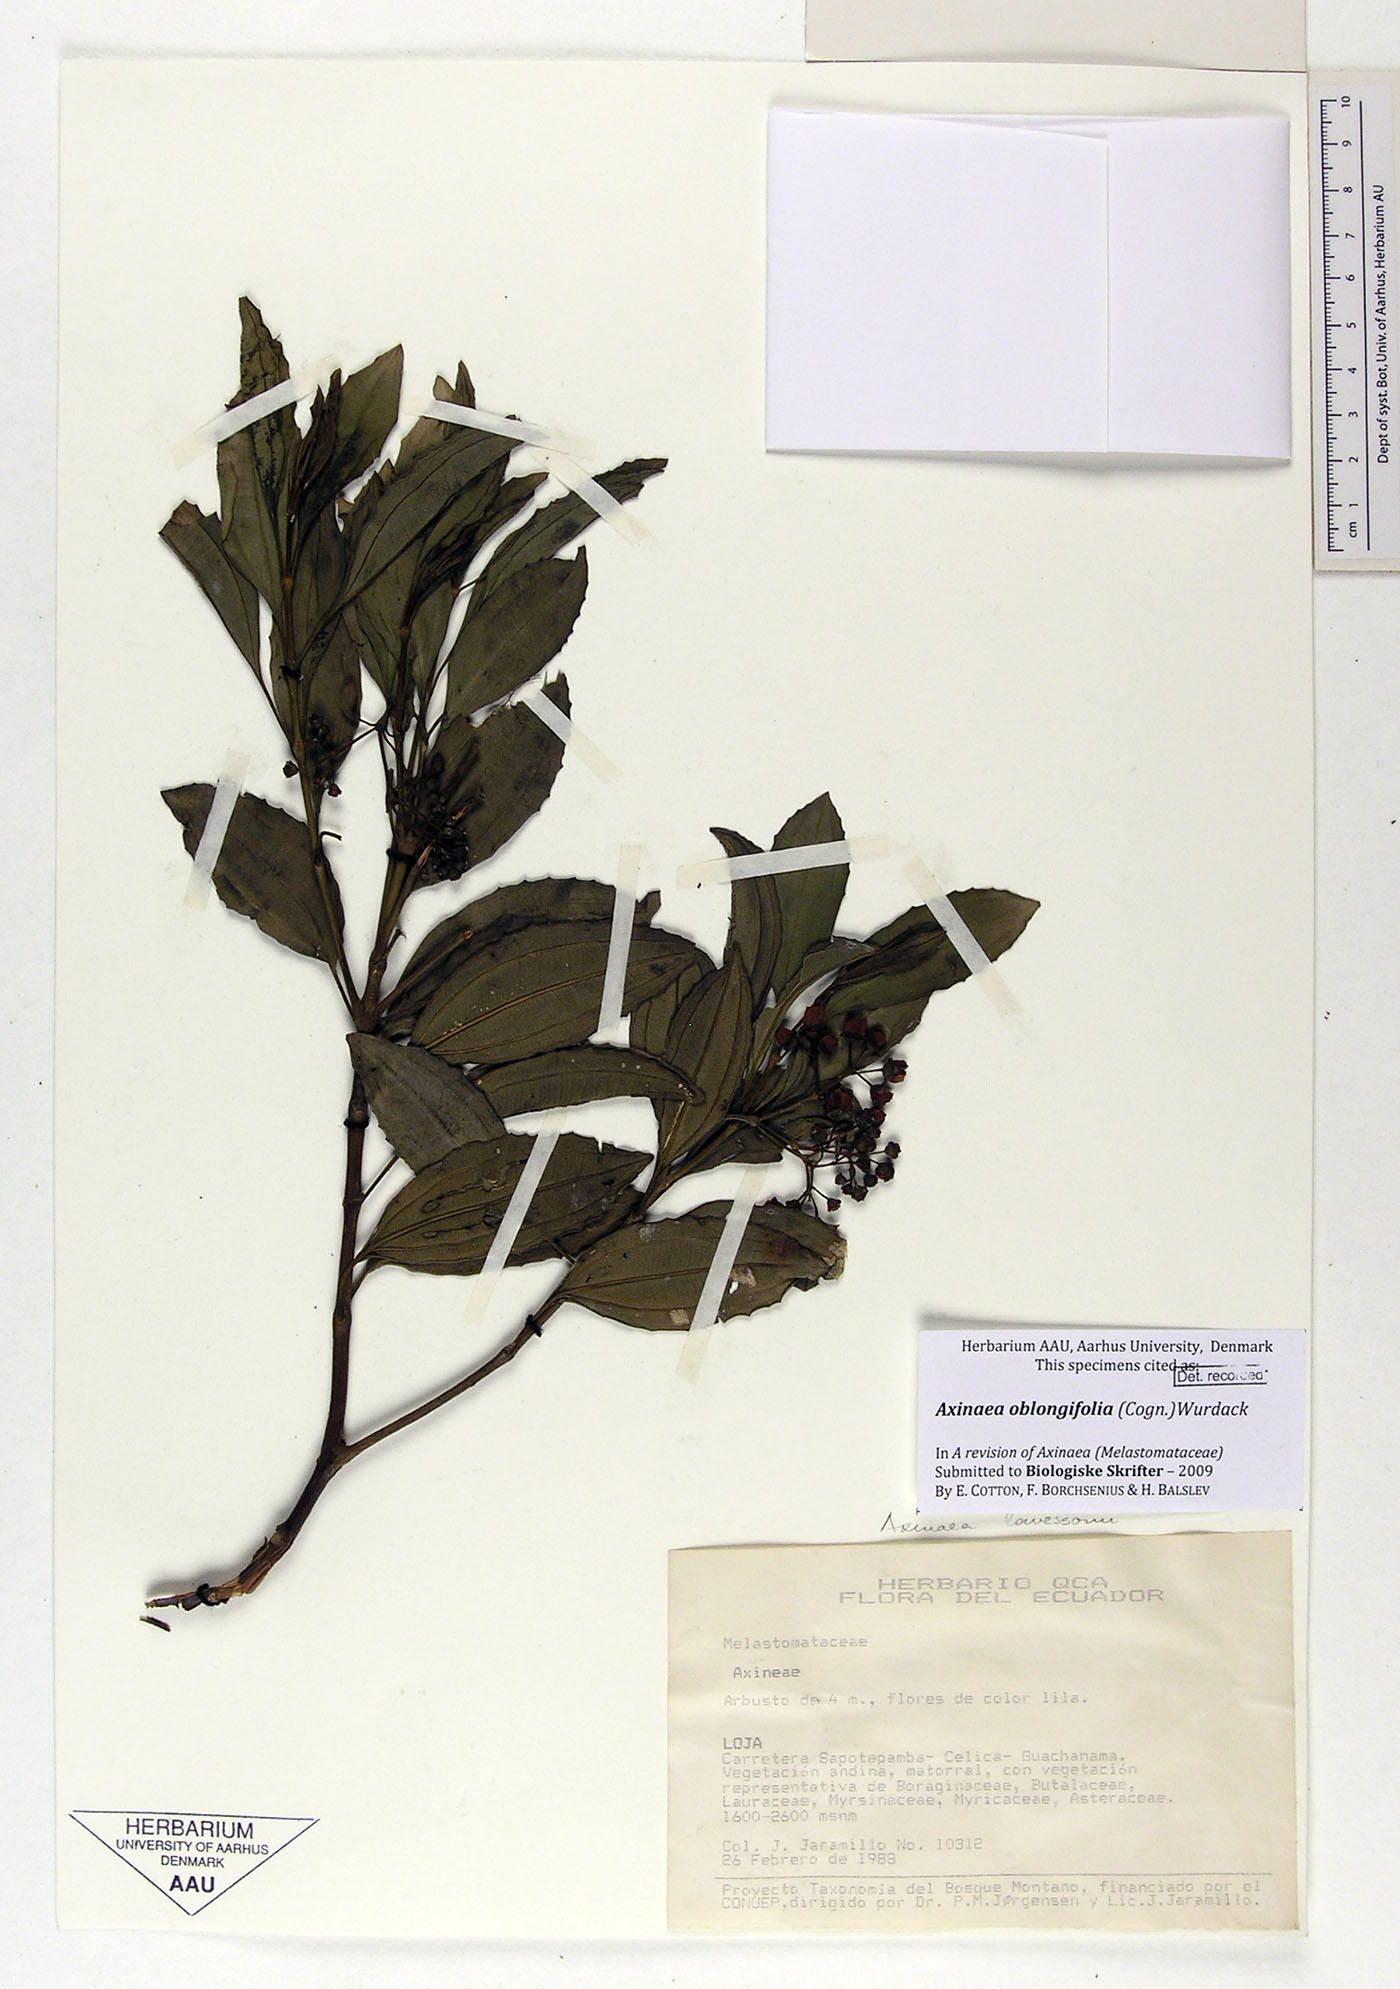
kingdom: Plantae
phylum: Tracheophyta
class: Magnoliopsida
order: Myrtales
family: Melastomataceae
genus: Axinaea
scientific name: Axinaea oblongifolia
